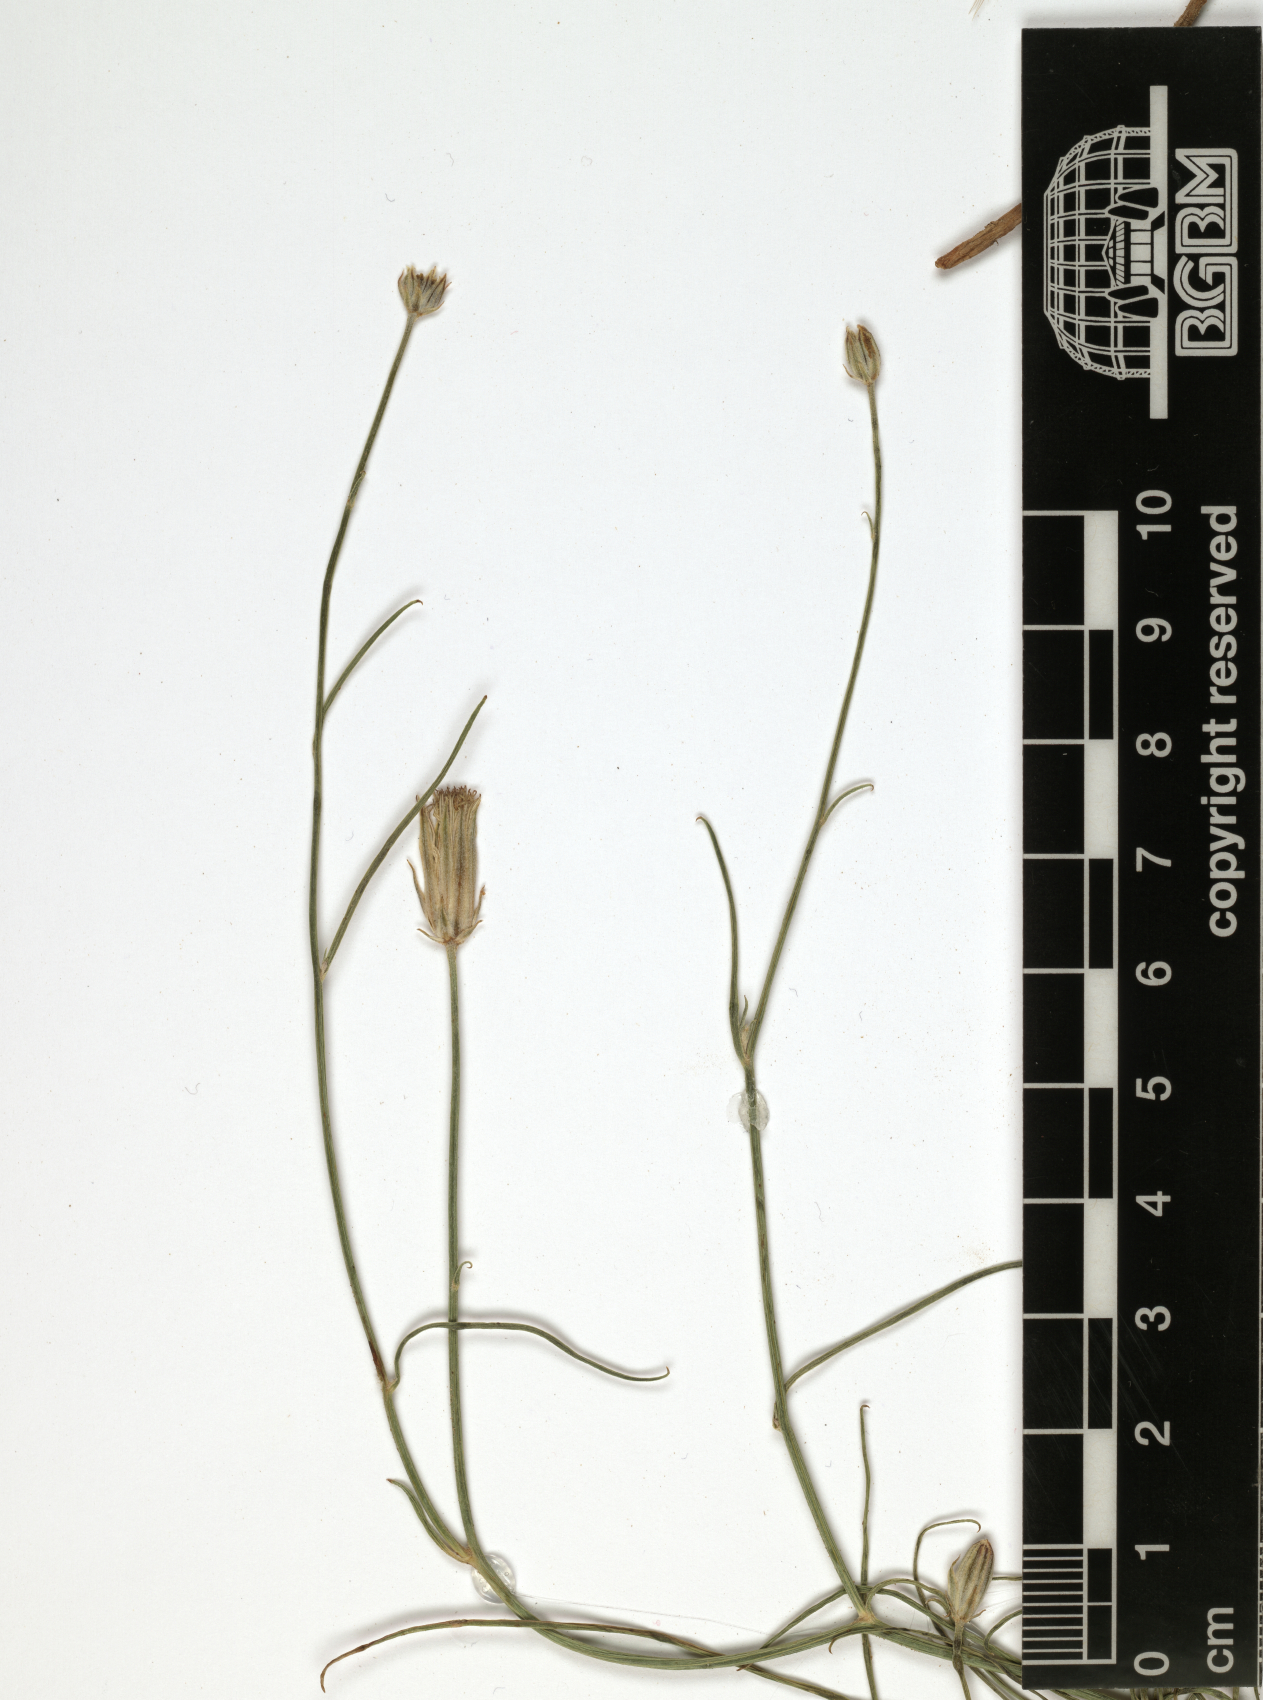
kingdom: Plantae
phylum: Tracheophyta
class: Magnoliopsida
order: Asterales
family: Asteraceae
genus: Ramaliella
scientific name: Ramaliella musilii
